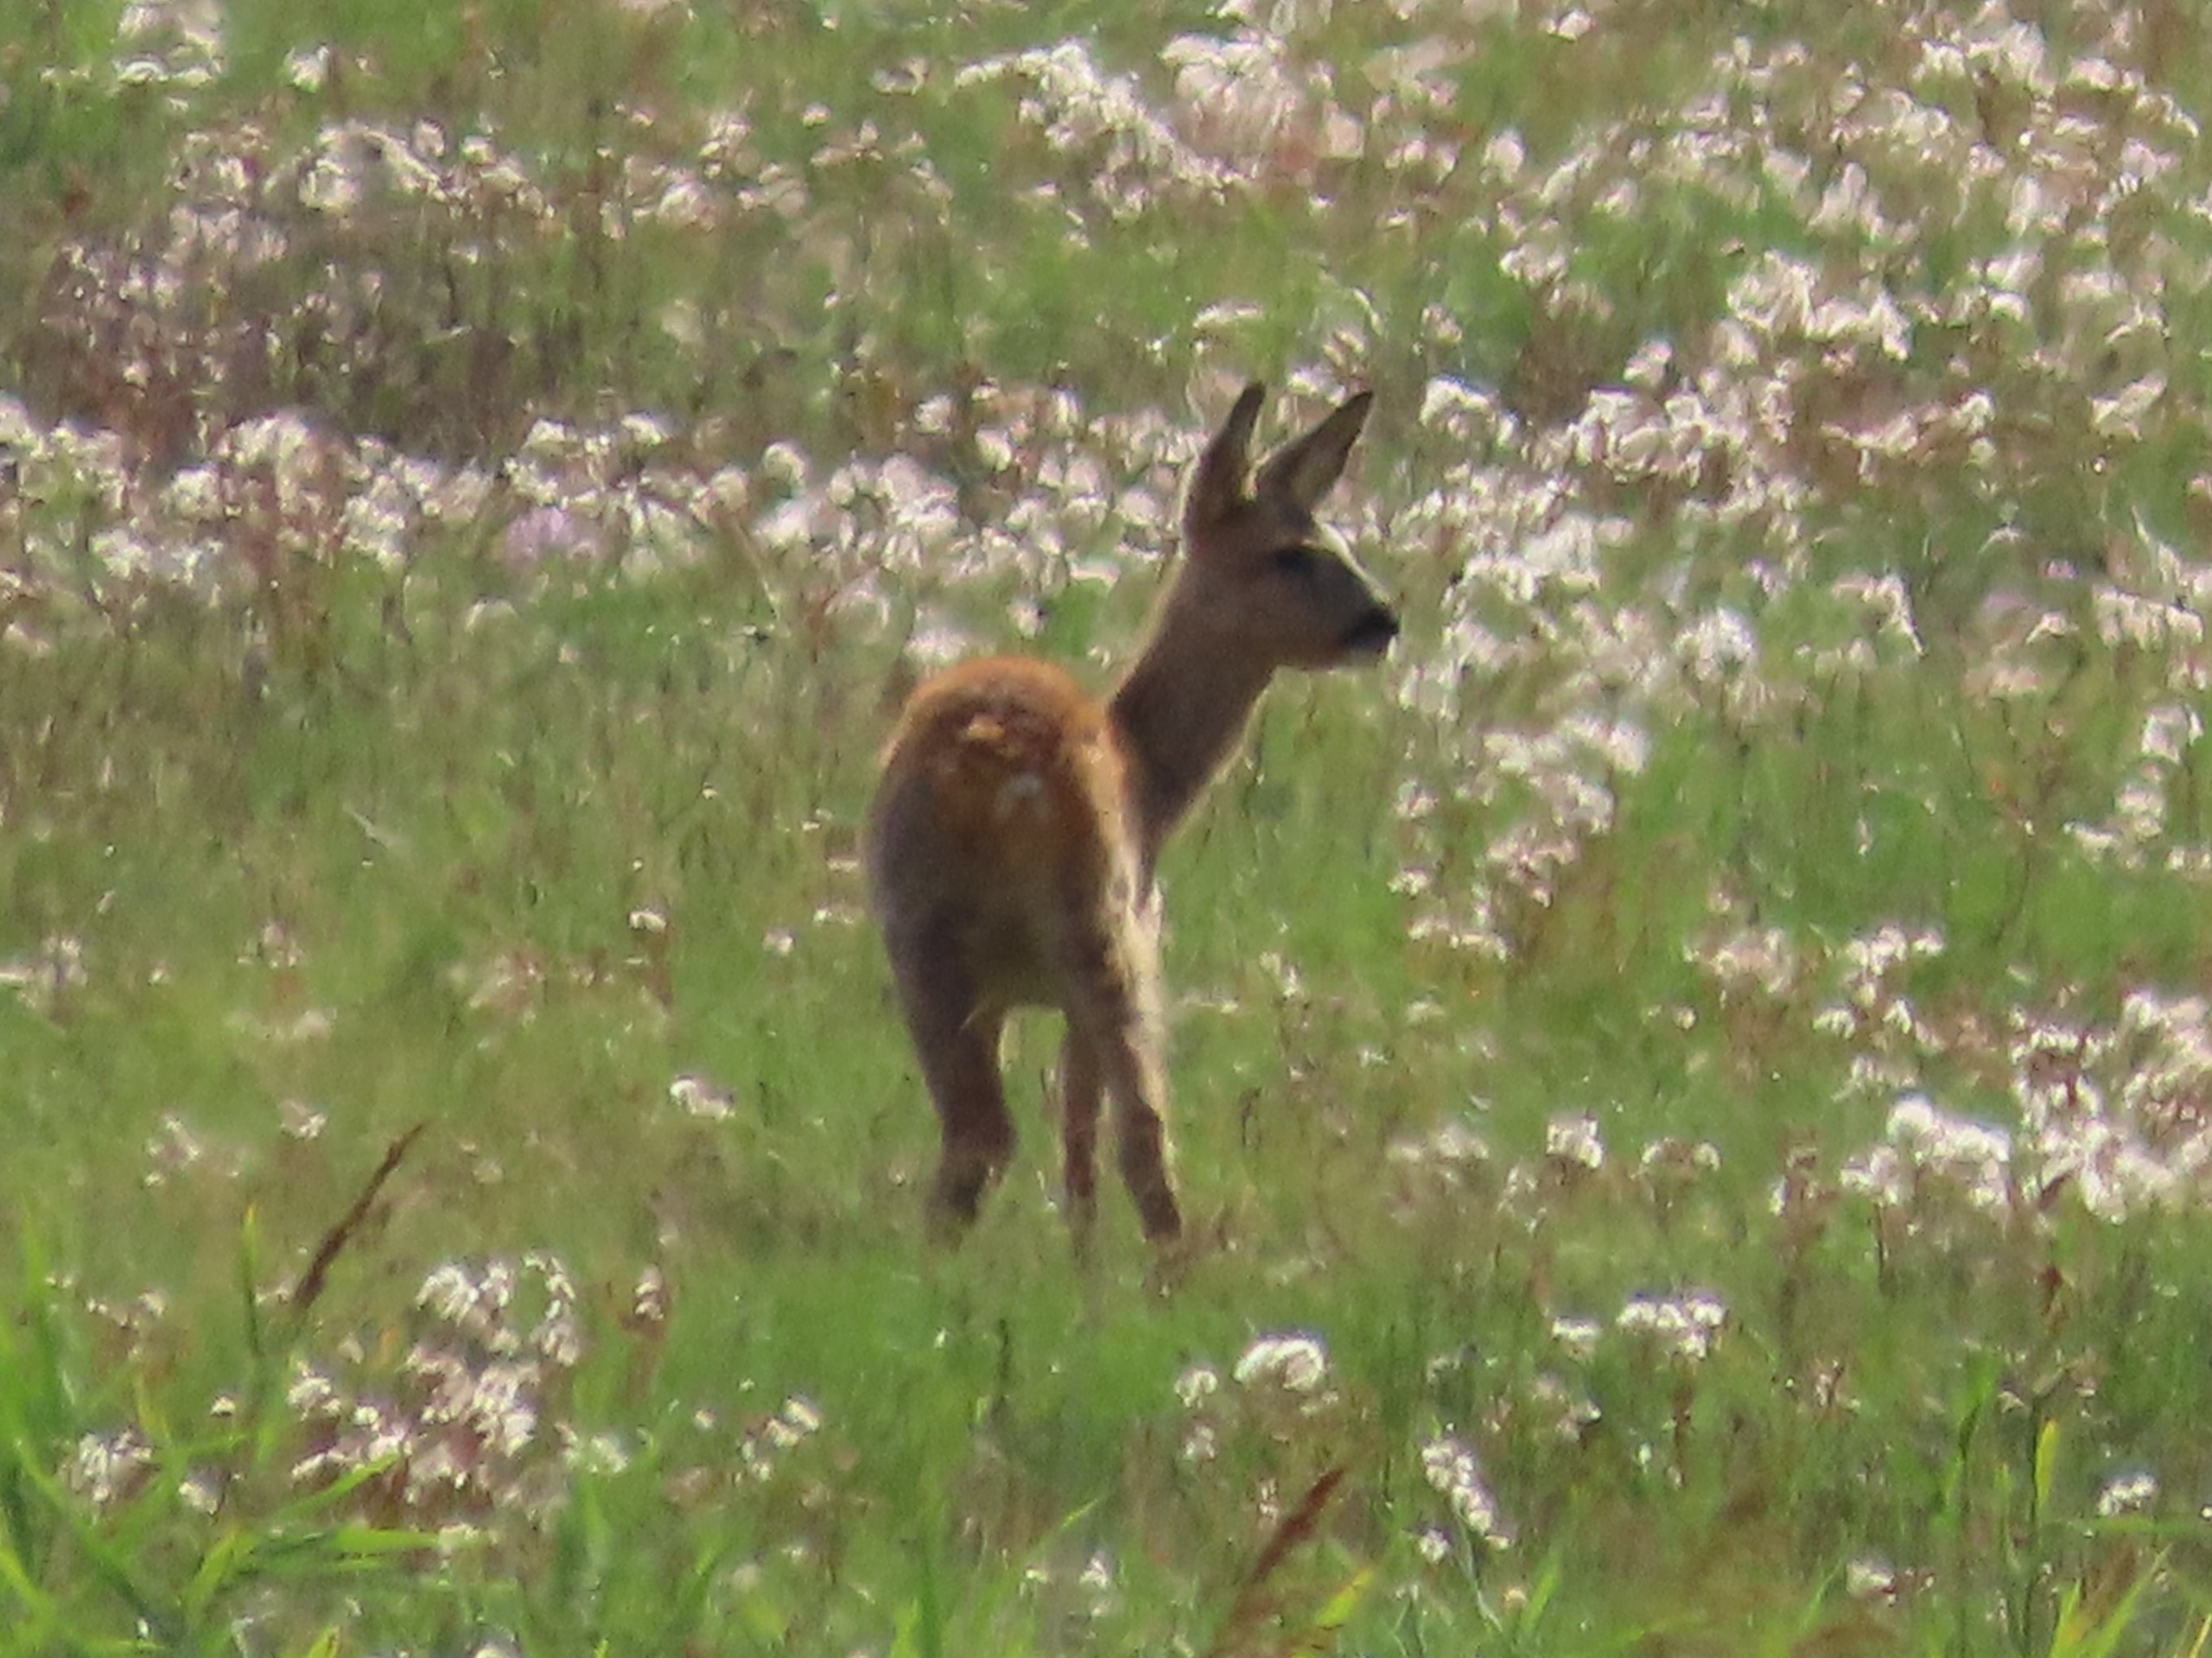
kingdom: Animalia
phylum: Chordata
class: Mammalia
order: Artiodactyla
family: Cervidae
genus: Capreolus
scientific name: Capreolus capreolus
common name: Rådyr
